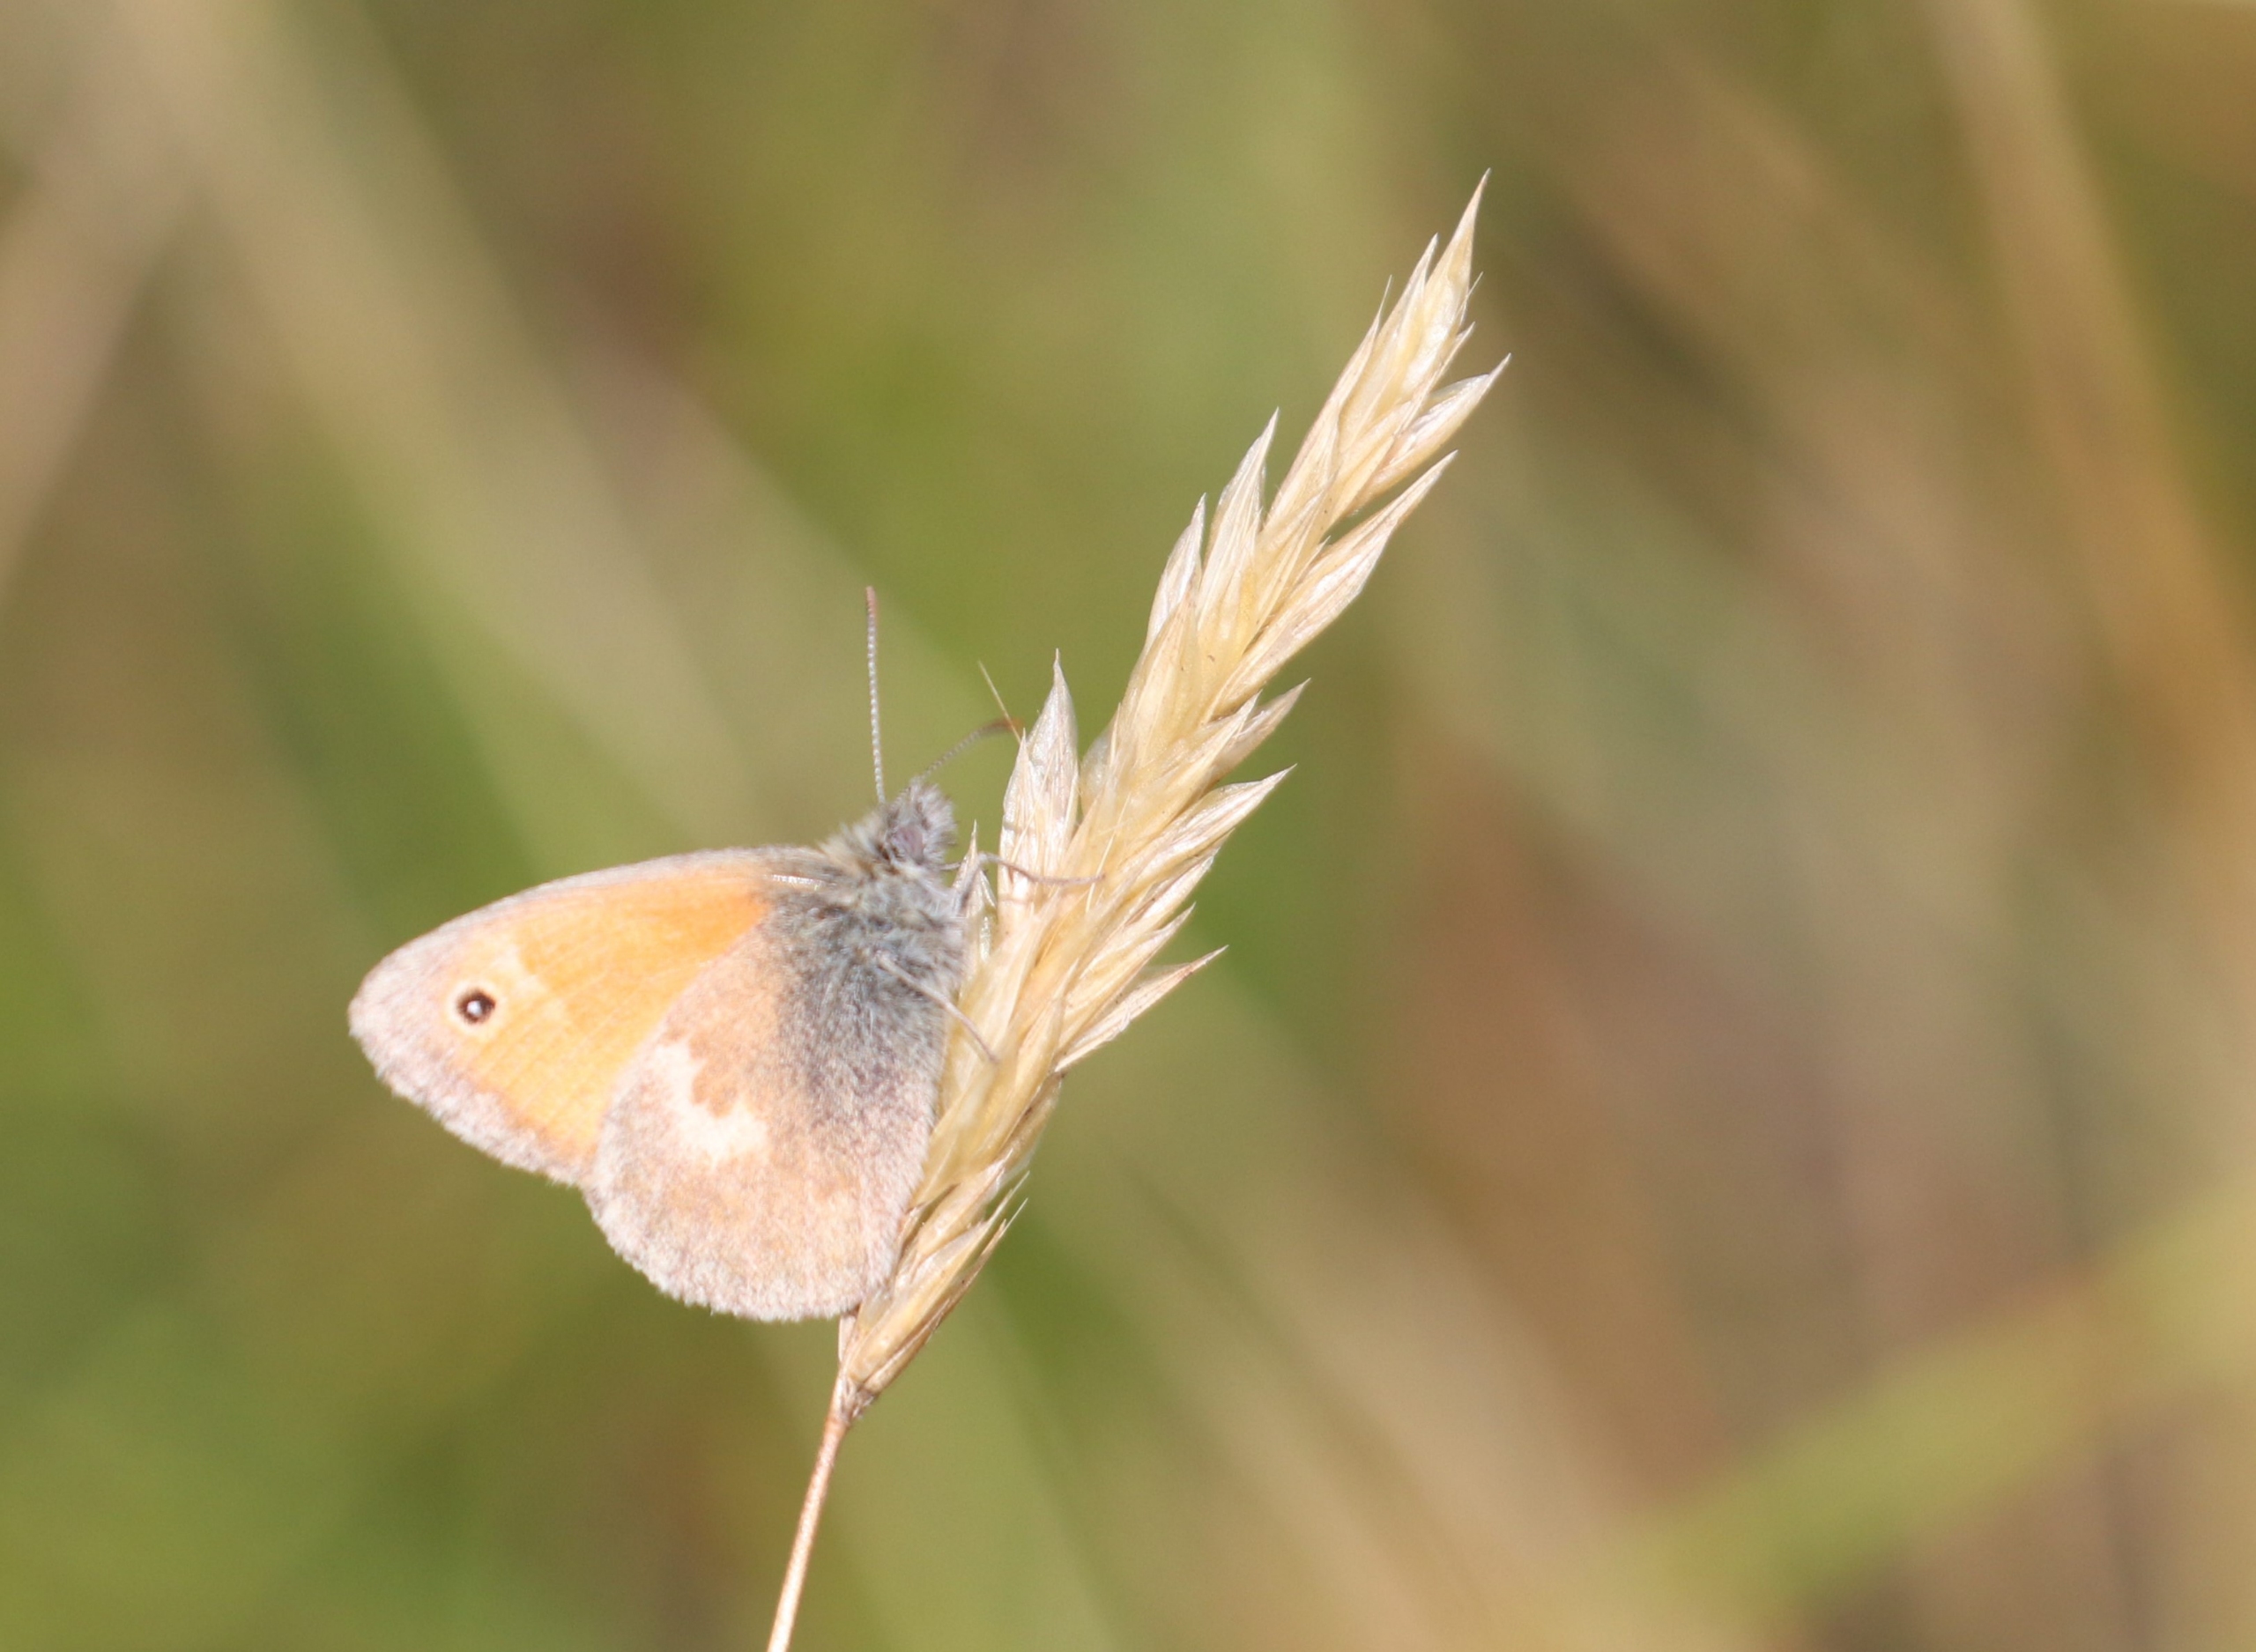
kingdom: Animalia
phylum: Arthropoda
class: Insecta
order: Lepidoptera
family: Nymphalidae
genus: Coenonympha
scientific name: Coenonympha pamphilus
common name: Okkergul randøje
